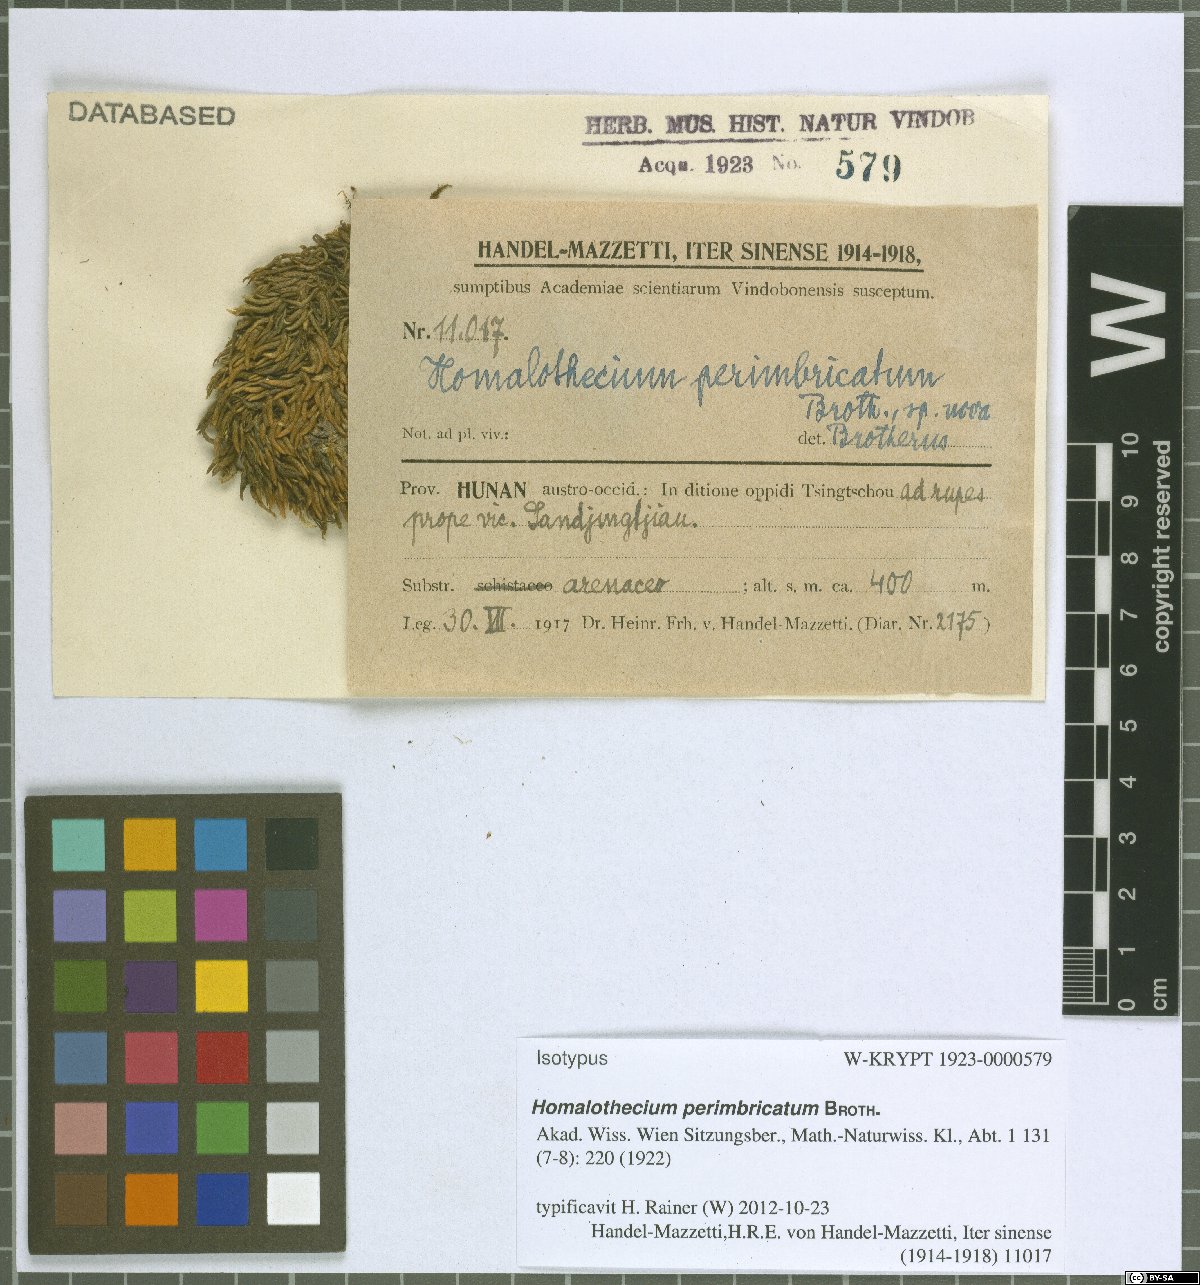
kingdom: Plantae
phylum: Bryophyta
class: Bryopsida
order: Hypnales
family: Brachytheciaceae
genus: Oticodium
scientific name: Oticodium laevisetum
